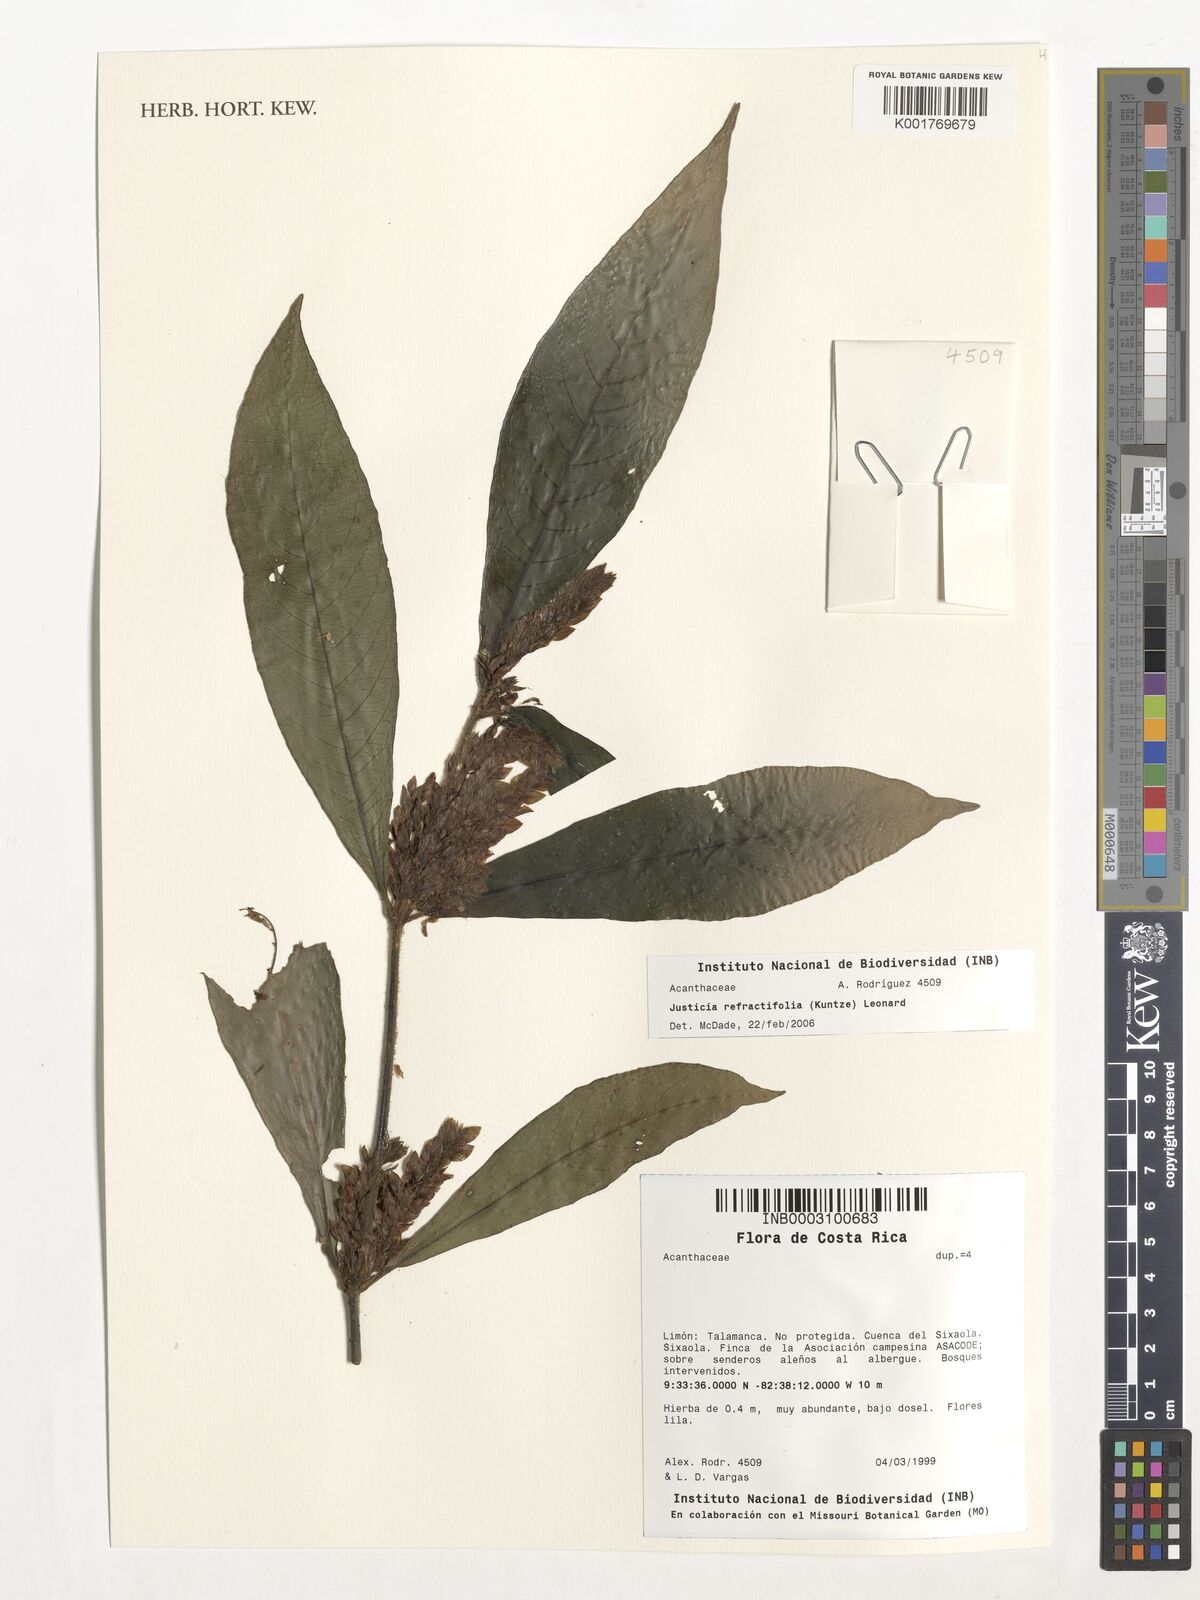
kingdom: Plantae
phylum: Tracheophyta
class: Magnoliopsida
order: Lamiales
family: Acanthaceae
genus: Justicia
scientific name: Justicia refractifolia
